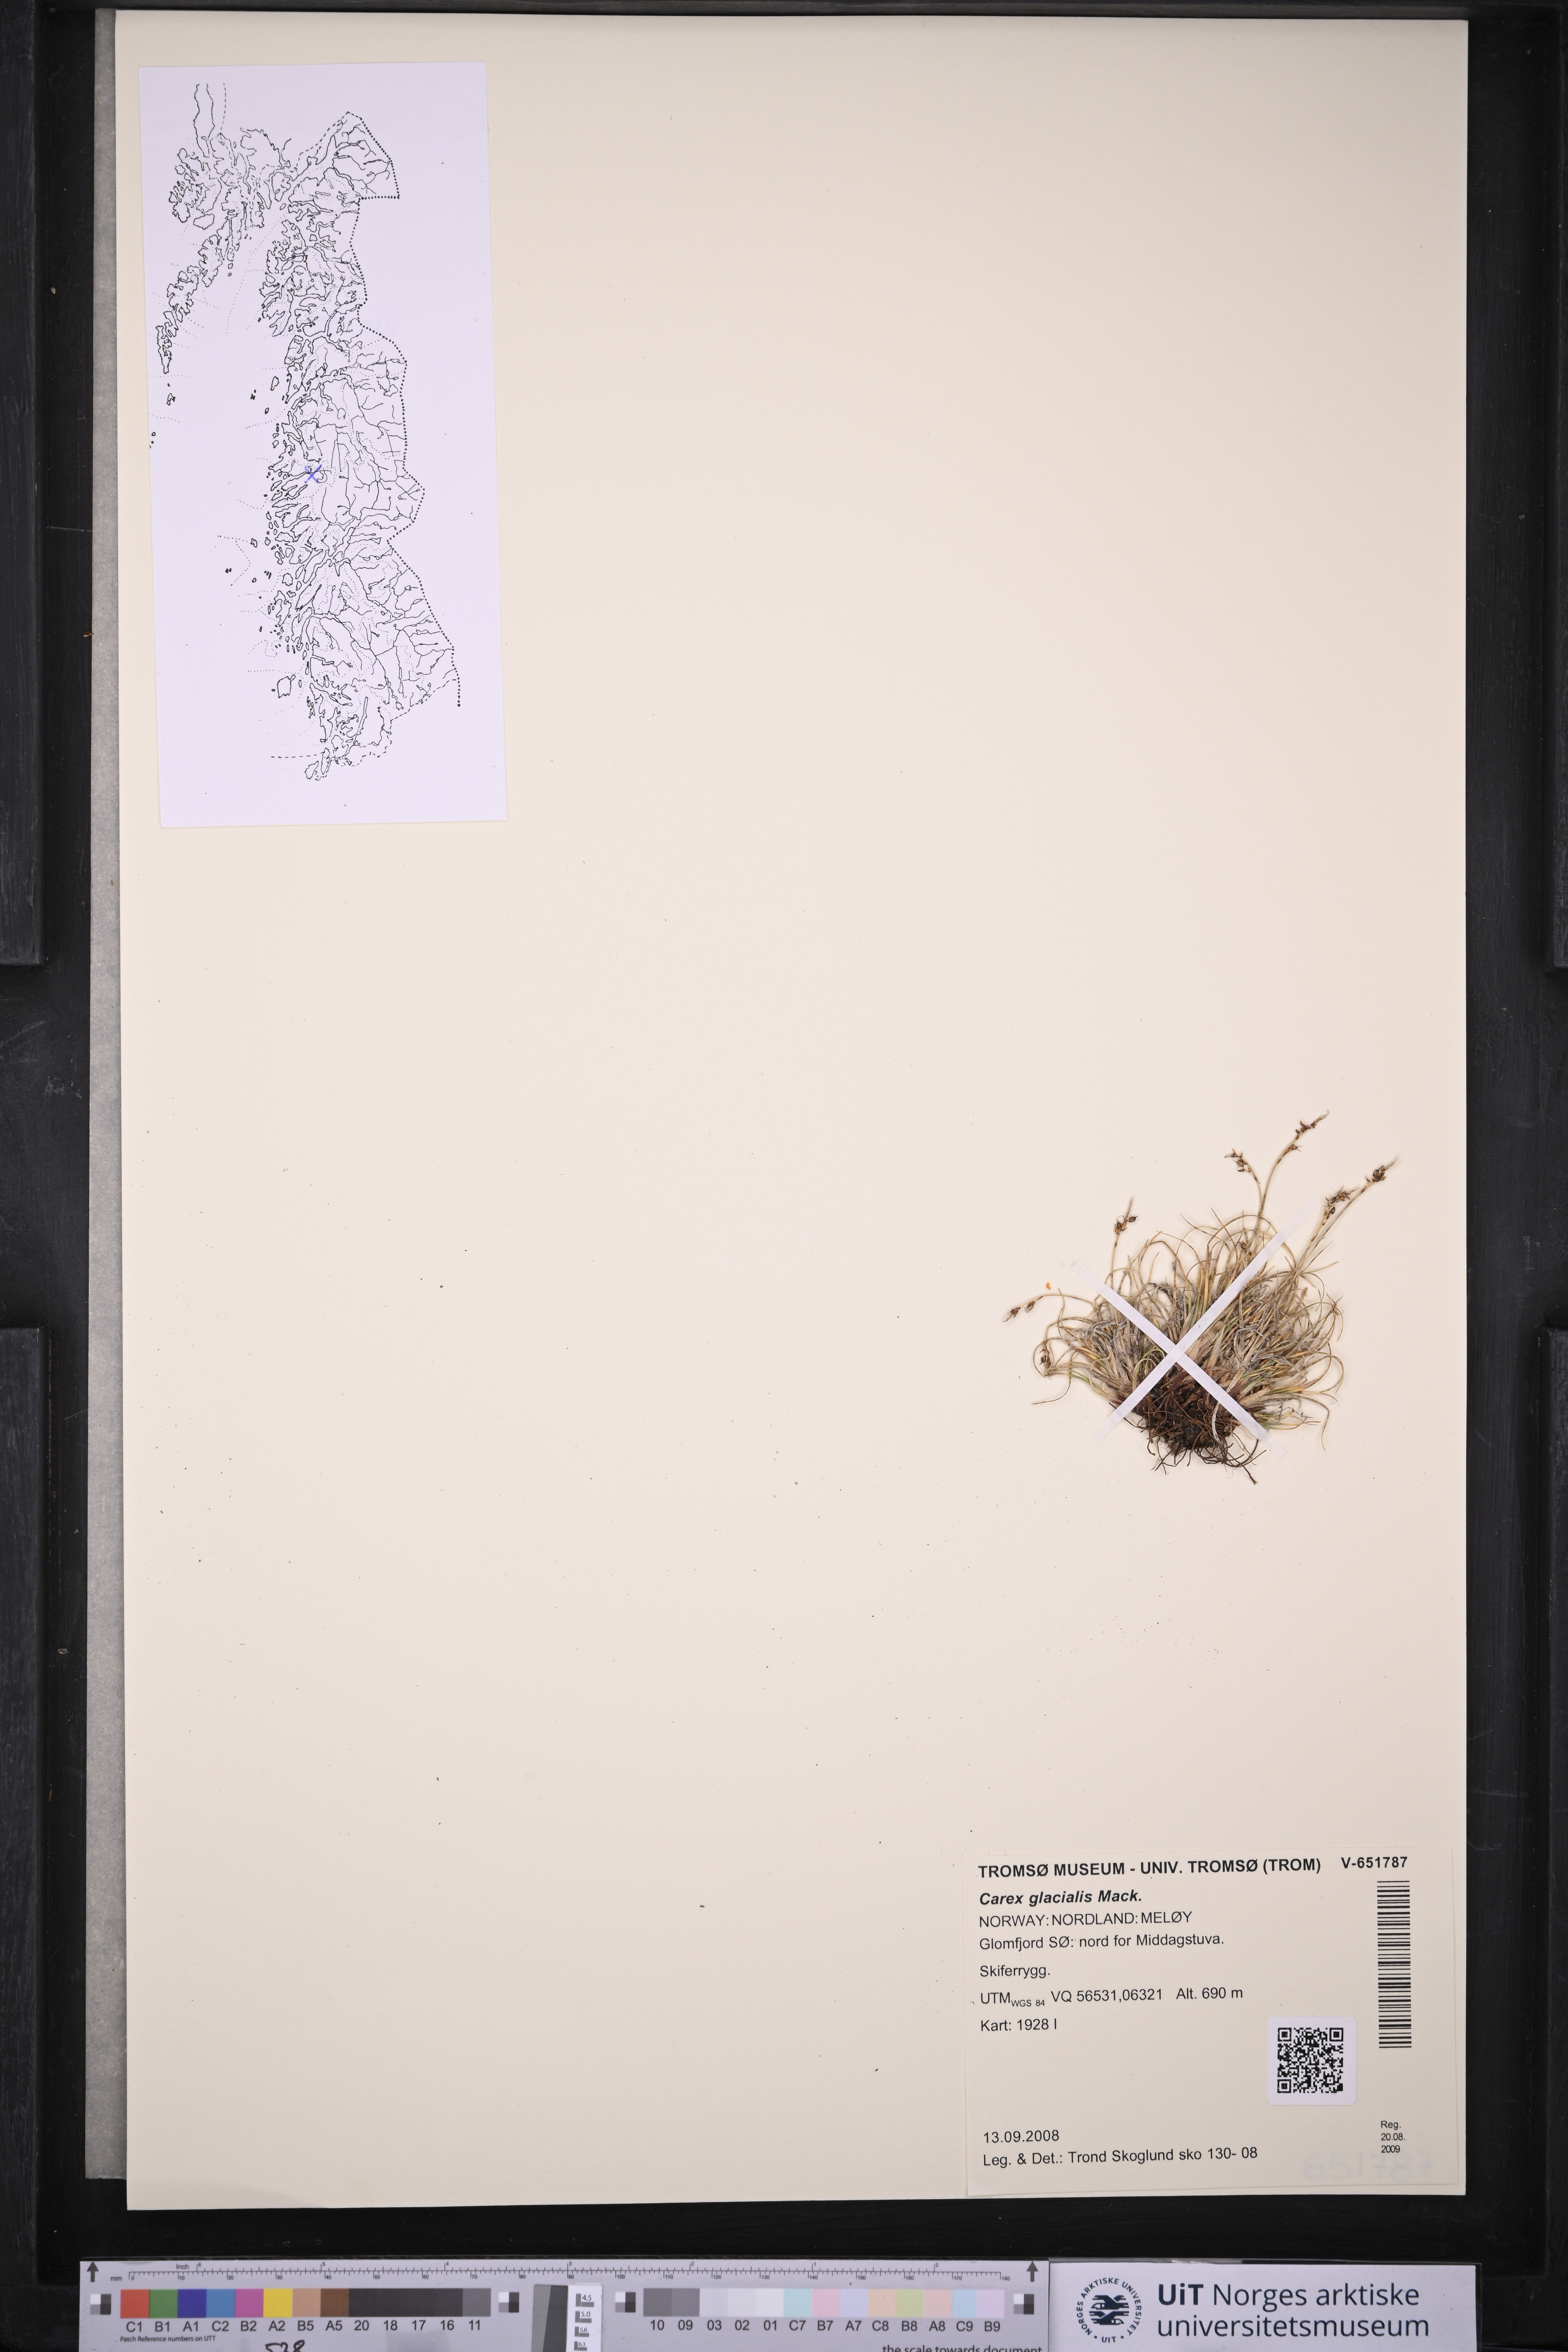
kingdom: Plantae
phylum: Tracheophyta
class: Liliopsida
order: Poales
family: Cyperaceae
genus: Carex
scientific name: Carex glacialis
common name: Newfoundland sedge
